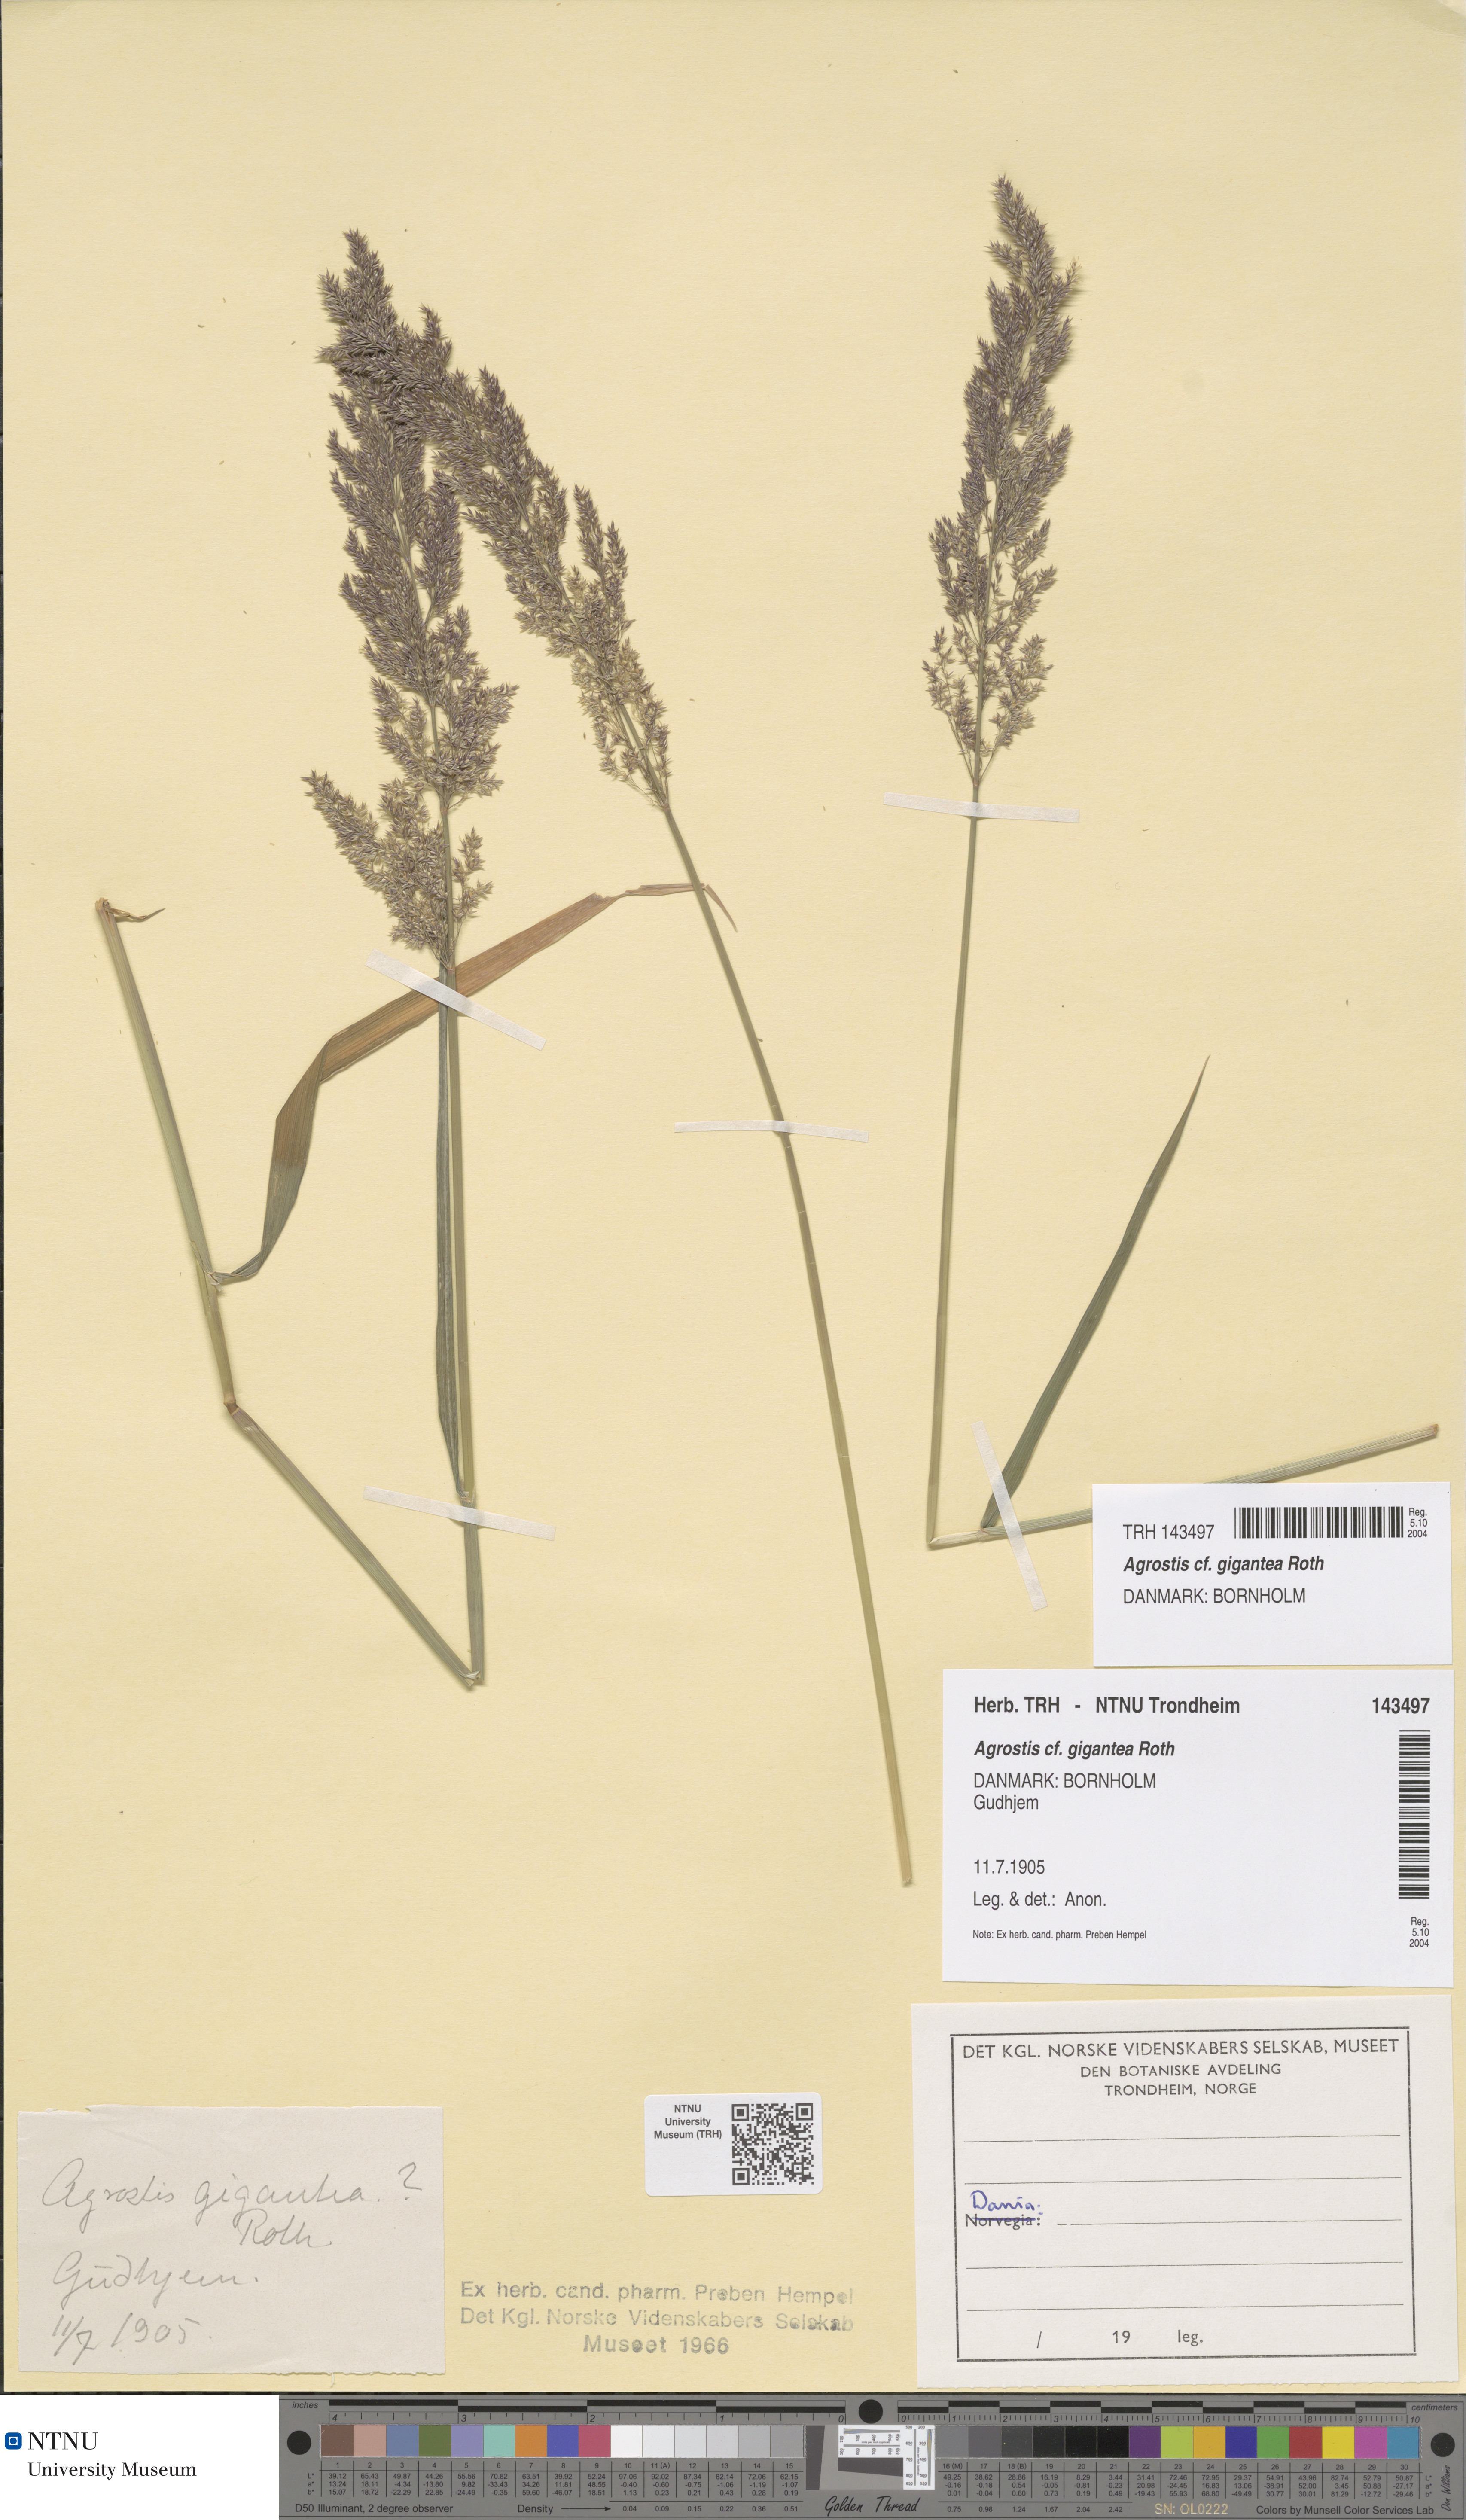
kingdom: Plantae
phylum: Tracheophyta
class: Liliopsida
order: Poales
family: Poaceae
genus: Agrostis
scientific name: Agrostis gigantea
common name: Black bent
